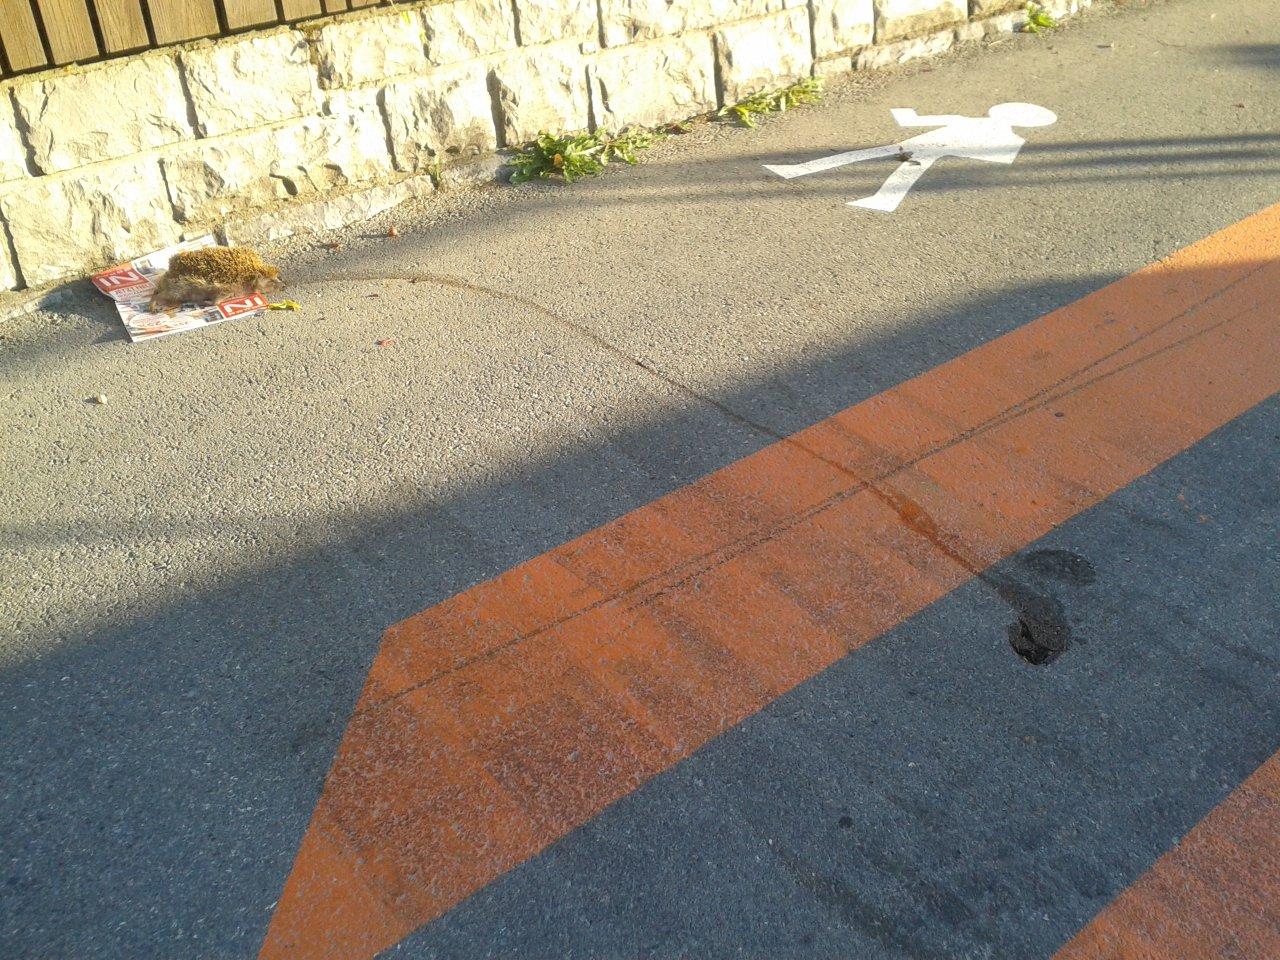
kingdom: Animalia
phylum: Chordata
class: Mammalia
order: Erinaceomorpha
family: Erinaceidae
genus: Erinaceus
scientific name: Erinaceus
